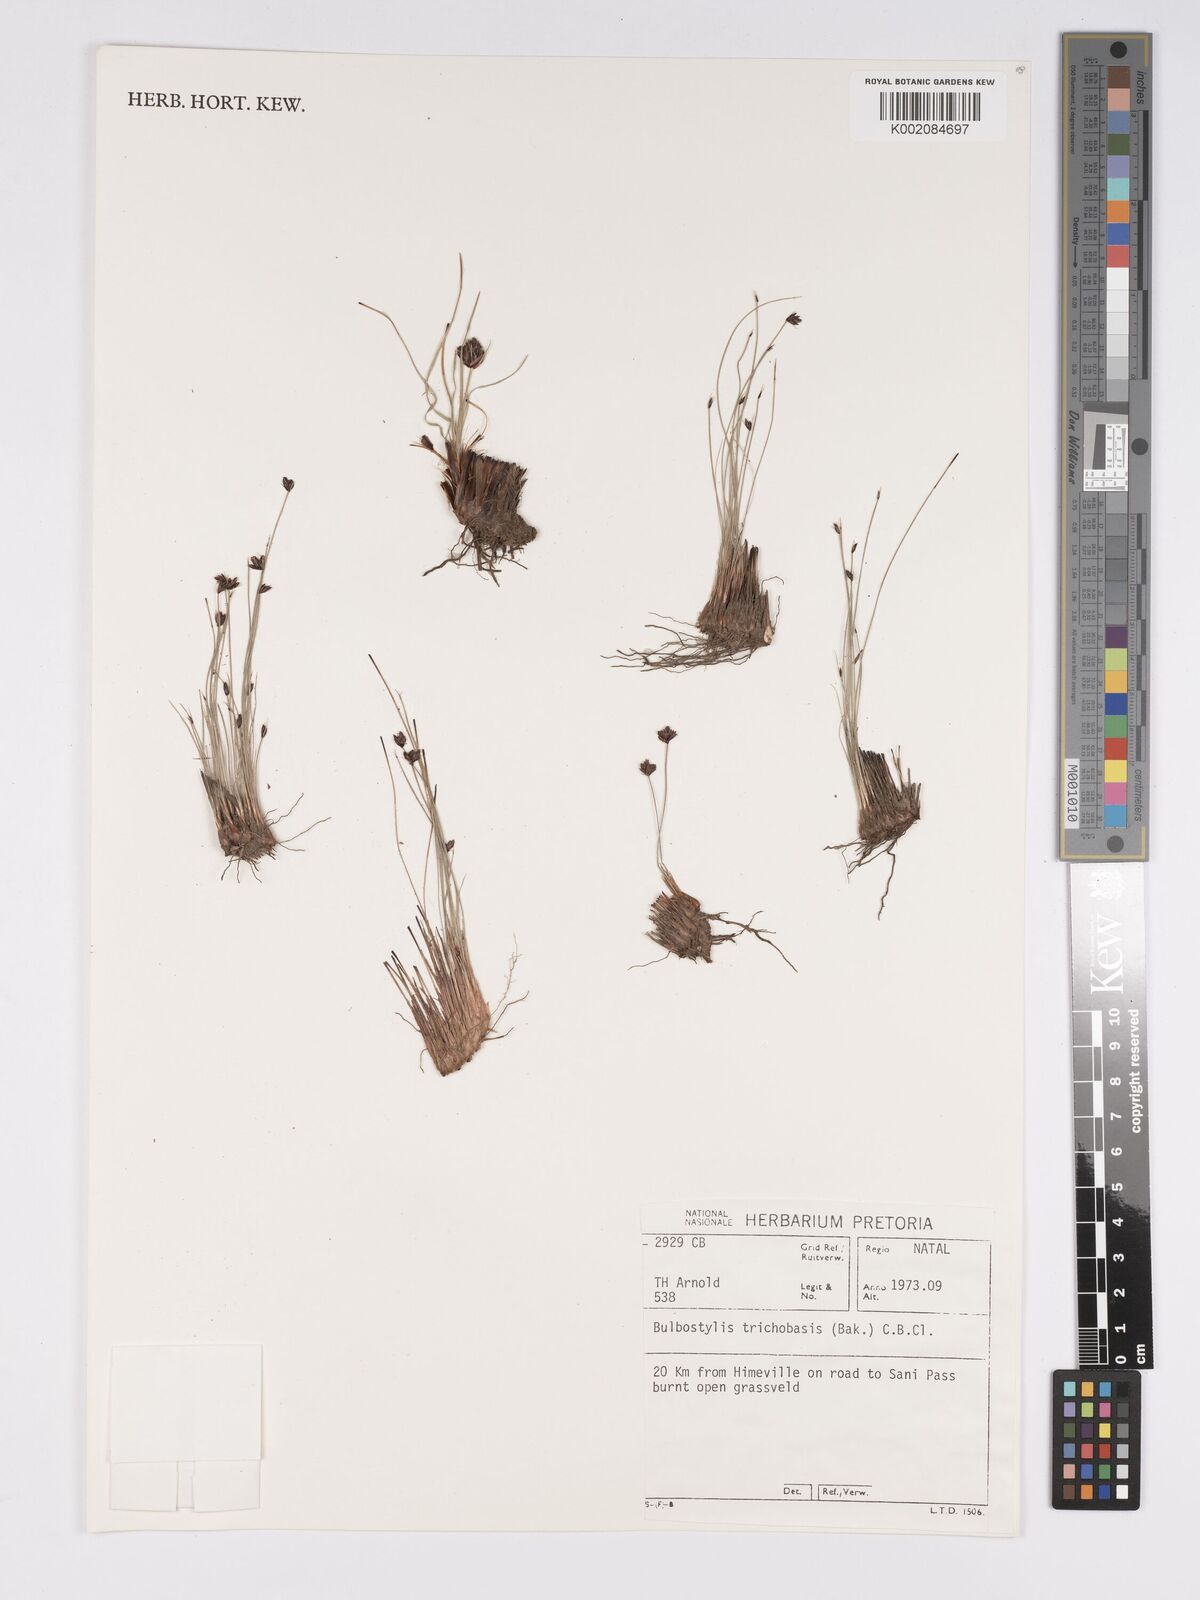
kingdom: Plantae
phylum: Tracheophyta
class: Liliopsida
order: Poales
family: Cyperaceae
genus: Bulbostylis
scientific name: Bulbostylis trichobasis
